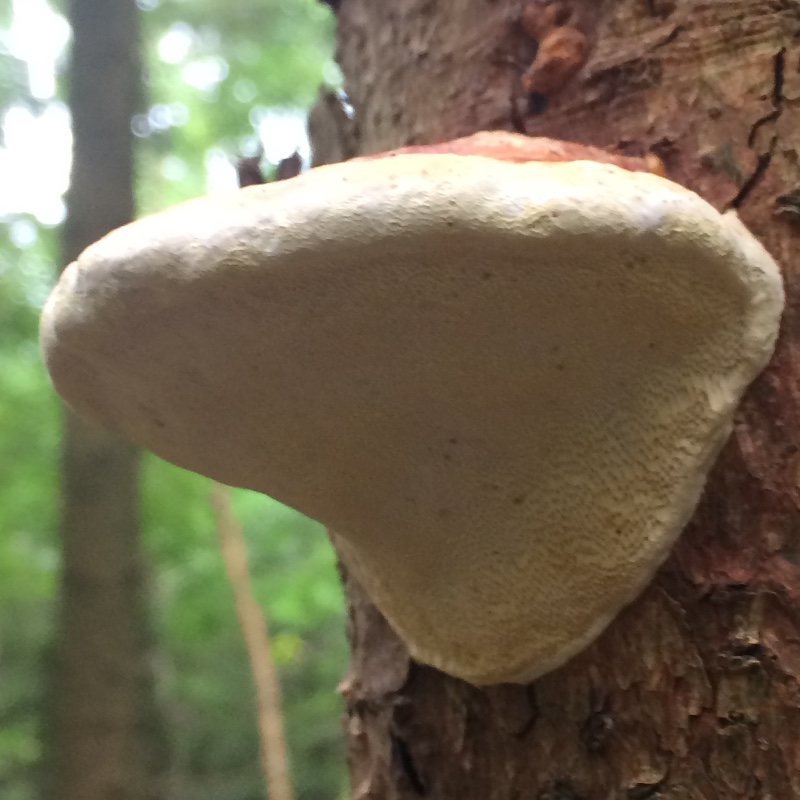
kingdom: Fungi
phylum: Basidiomycota
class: Agaricomycetes
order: Polyporales
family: Fomitopsidaceae
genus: Fomitopsis
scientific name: Fomitopsis pinicola
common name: randbæltet hovporesvamp
